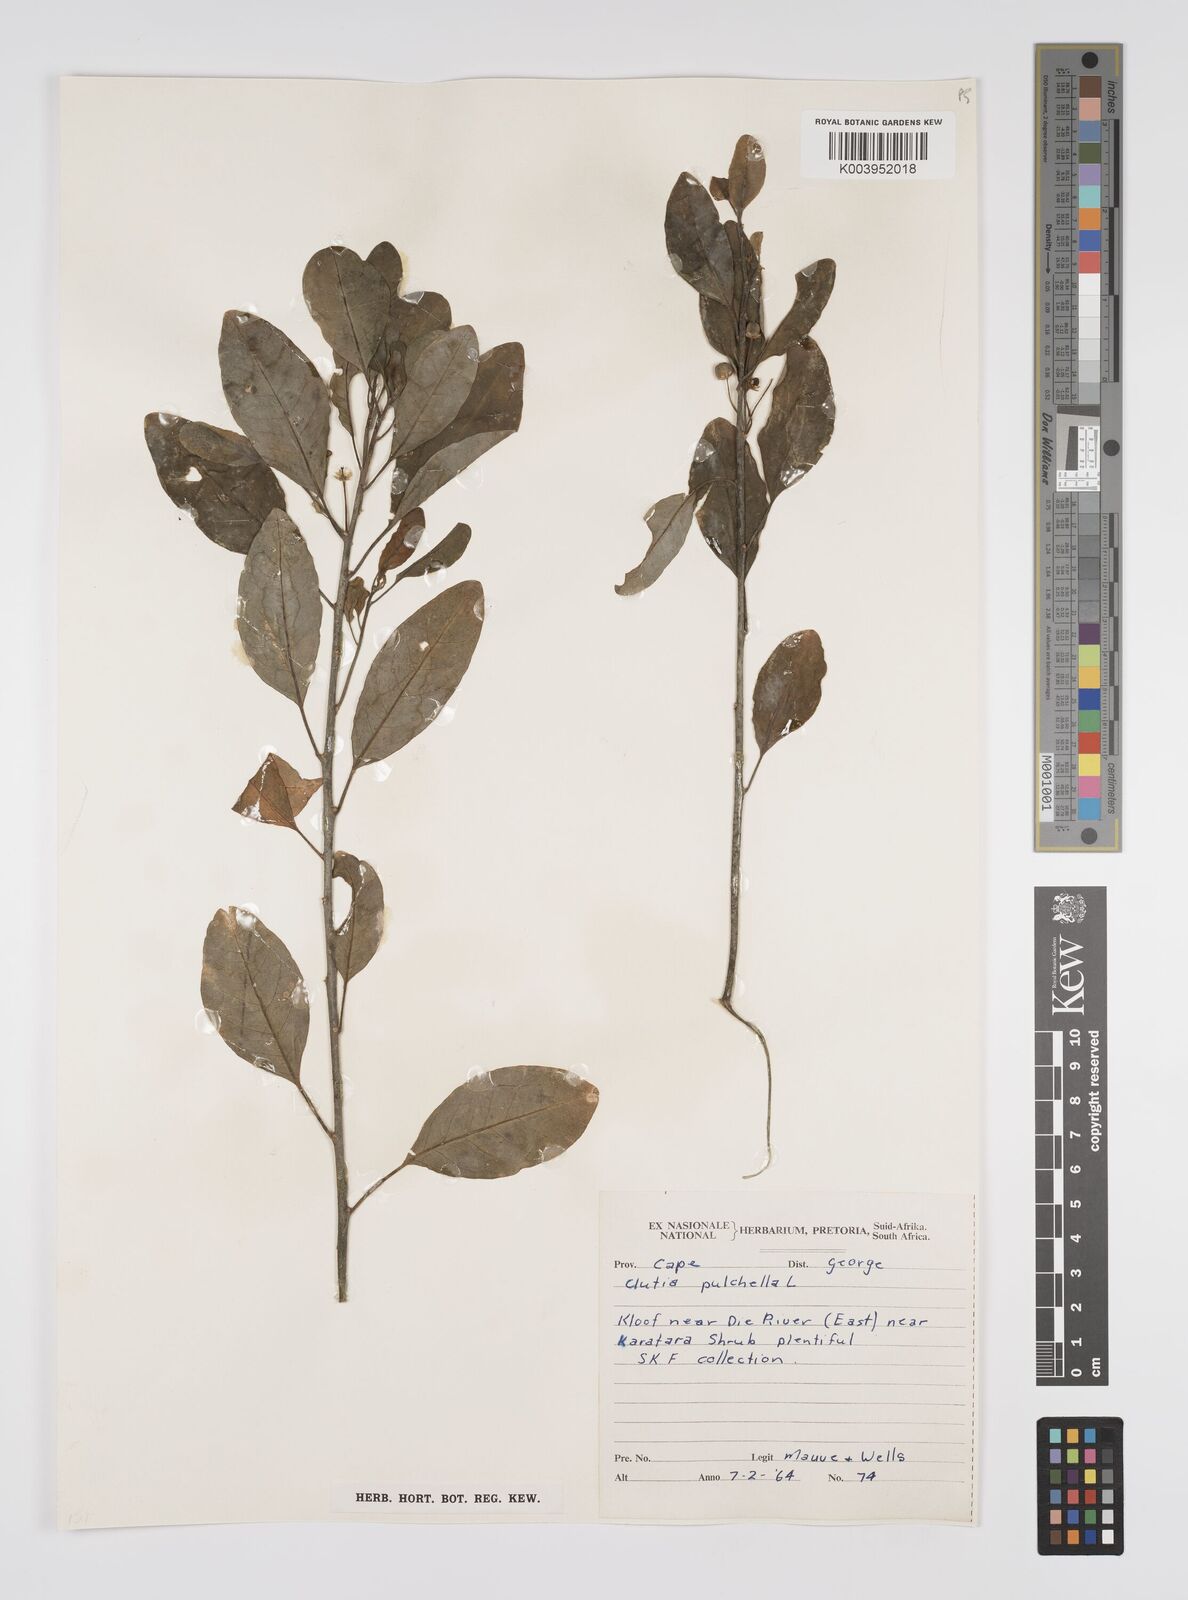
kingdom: Plantae
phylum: Tracheophyta
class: Magnoliopsida
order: Malpighiales
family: Peraceae
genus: Clutia
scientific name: Clutia pulchella
